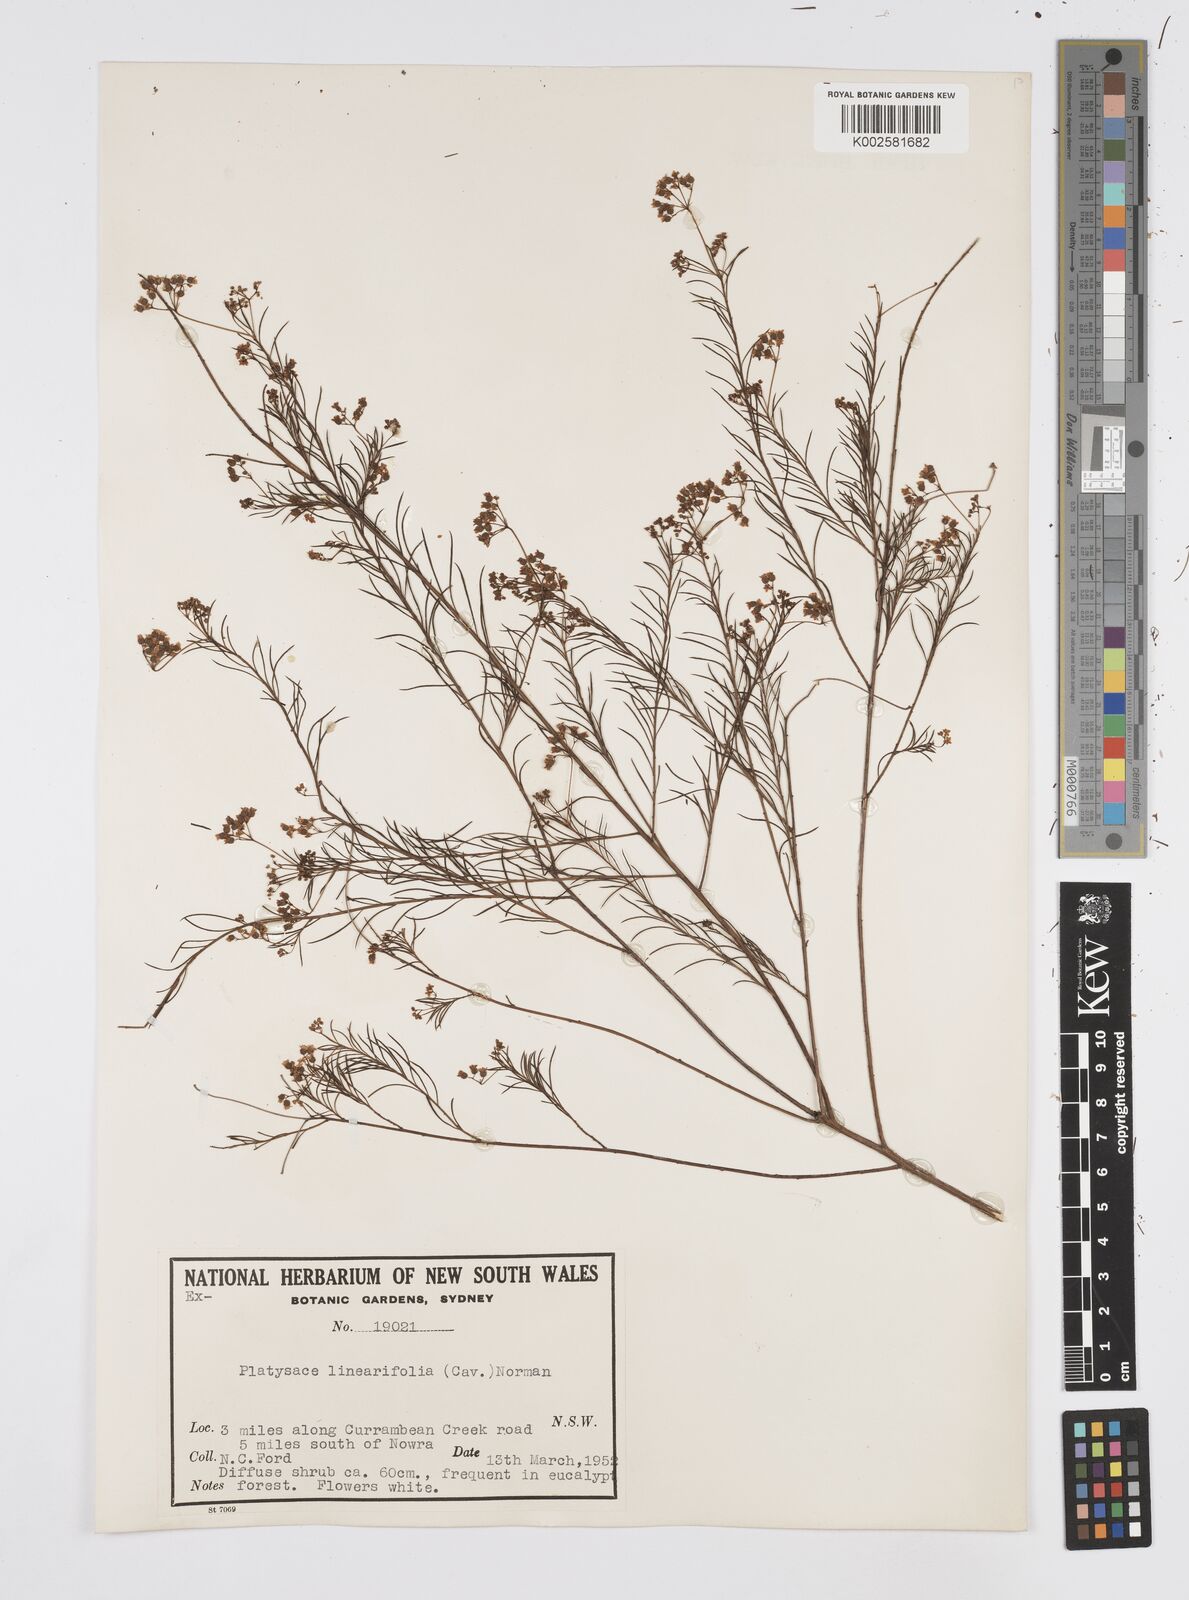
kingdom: Plantae
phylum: Tracheophyta
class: Magnoliopsida
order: Apiales
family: Apiaceae
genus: Platysace
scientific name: Platysace linearifolia
